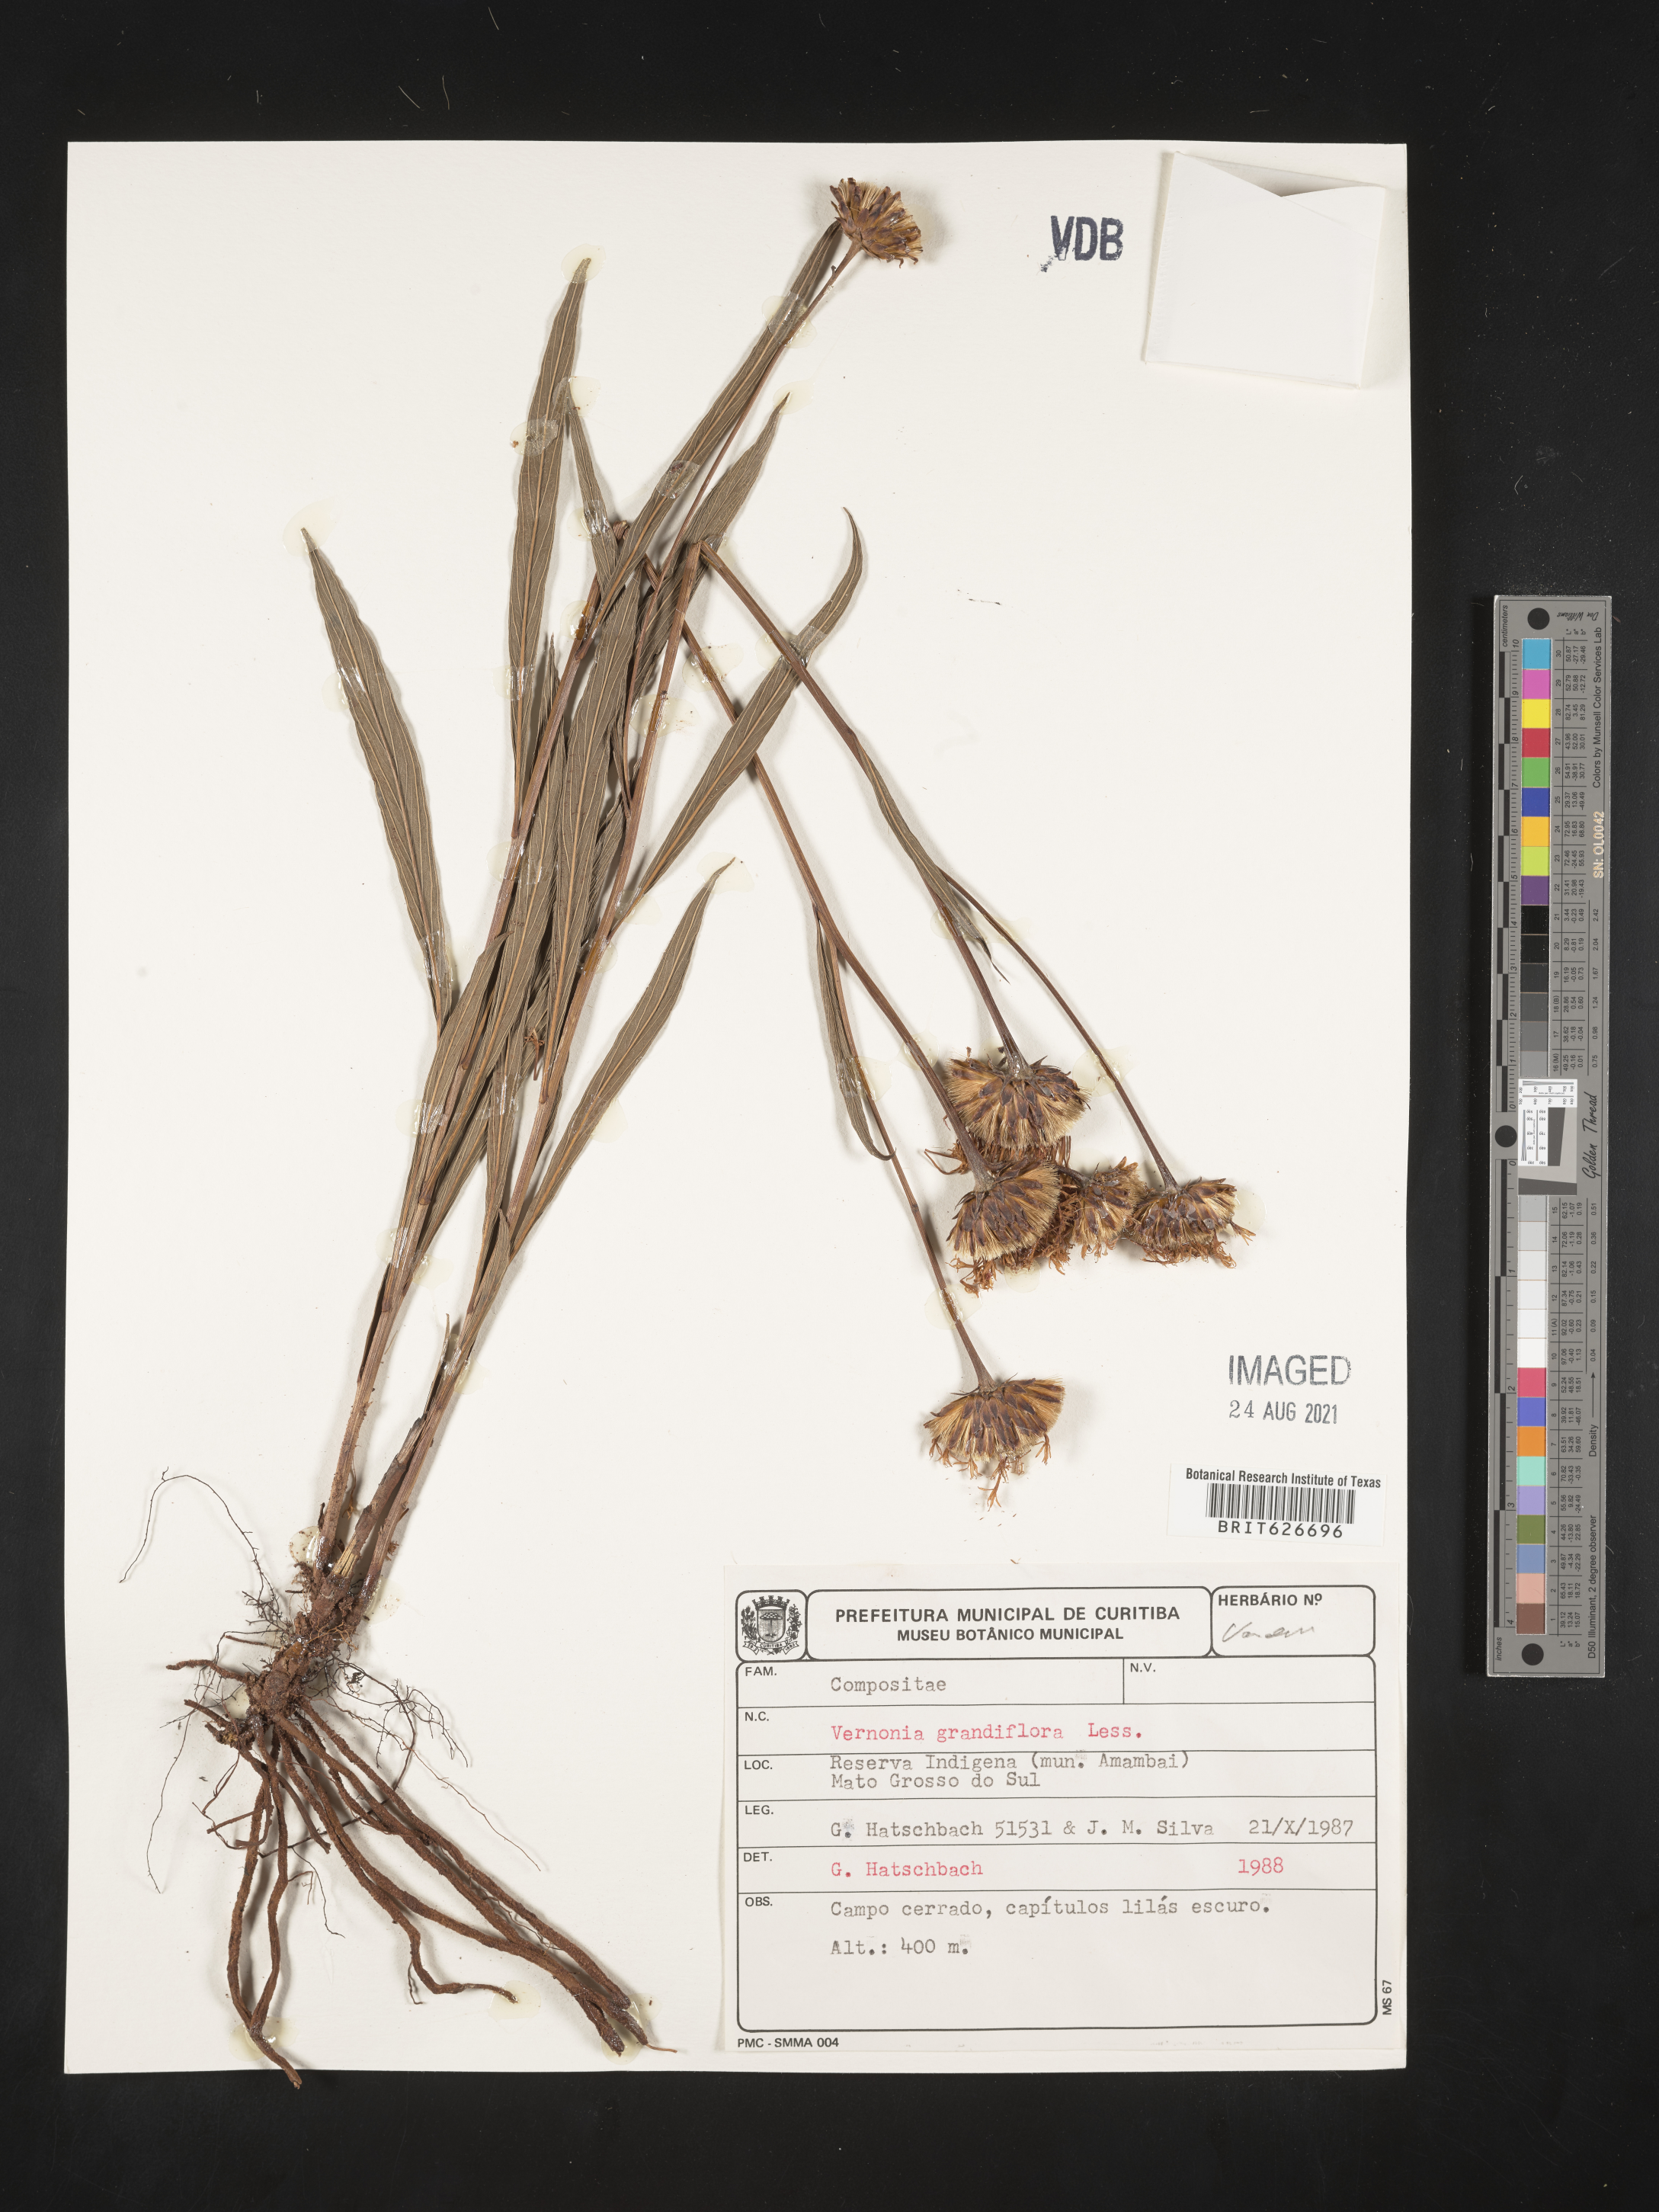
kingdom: Plantae
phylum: Tracheophyta
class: Magnoliopsida
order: Asterales
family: Asteraceae
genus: Lessingianthus
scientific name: Lessingianthus grandiflorus
